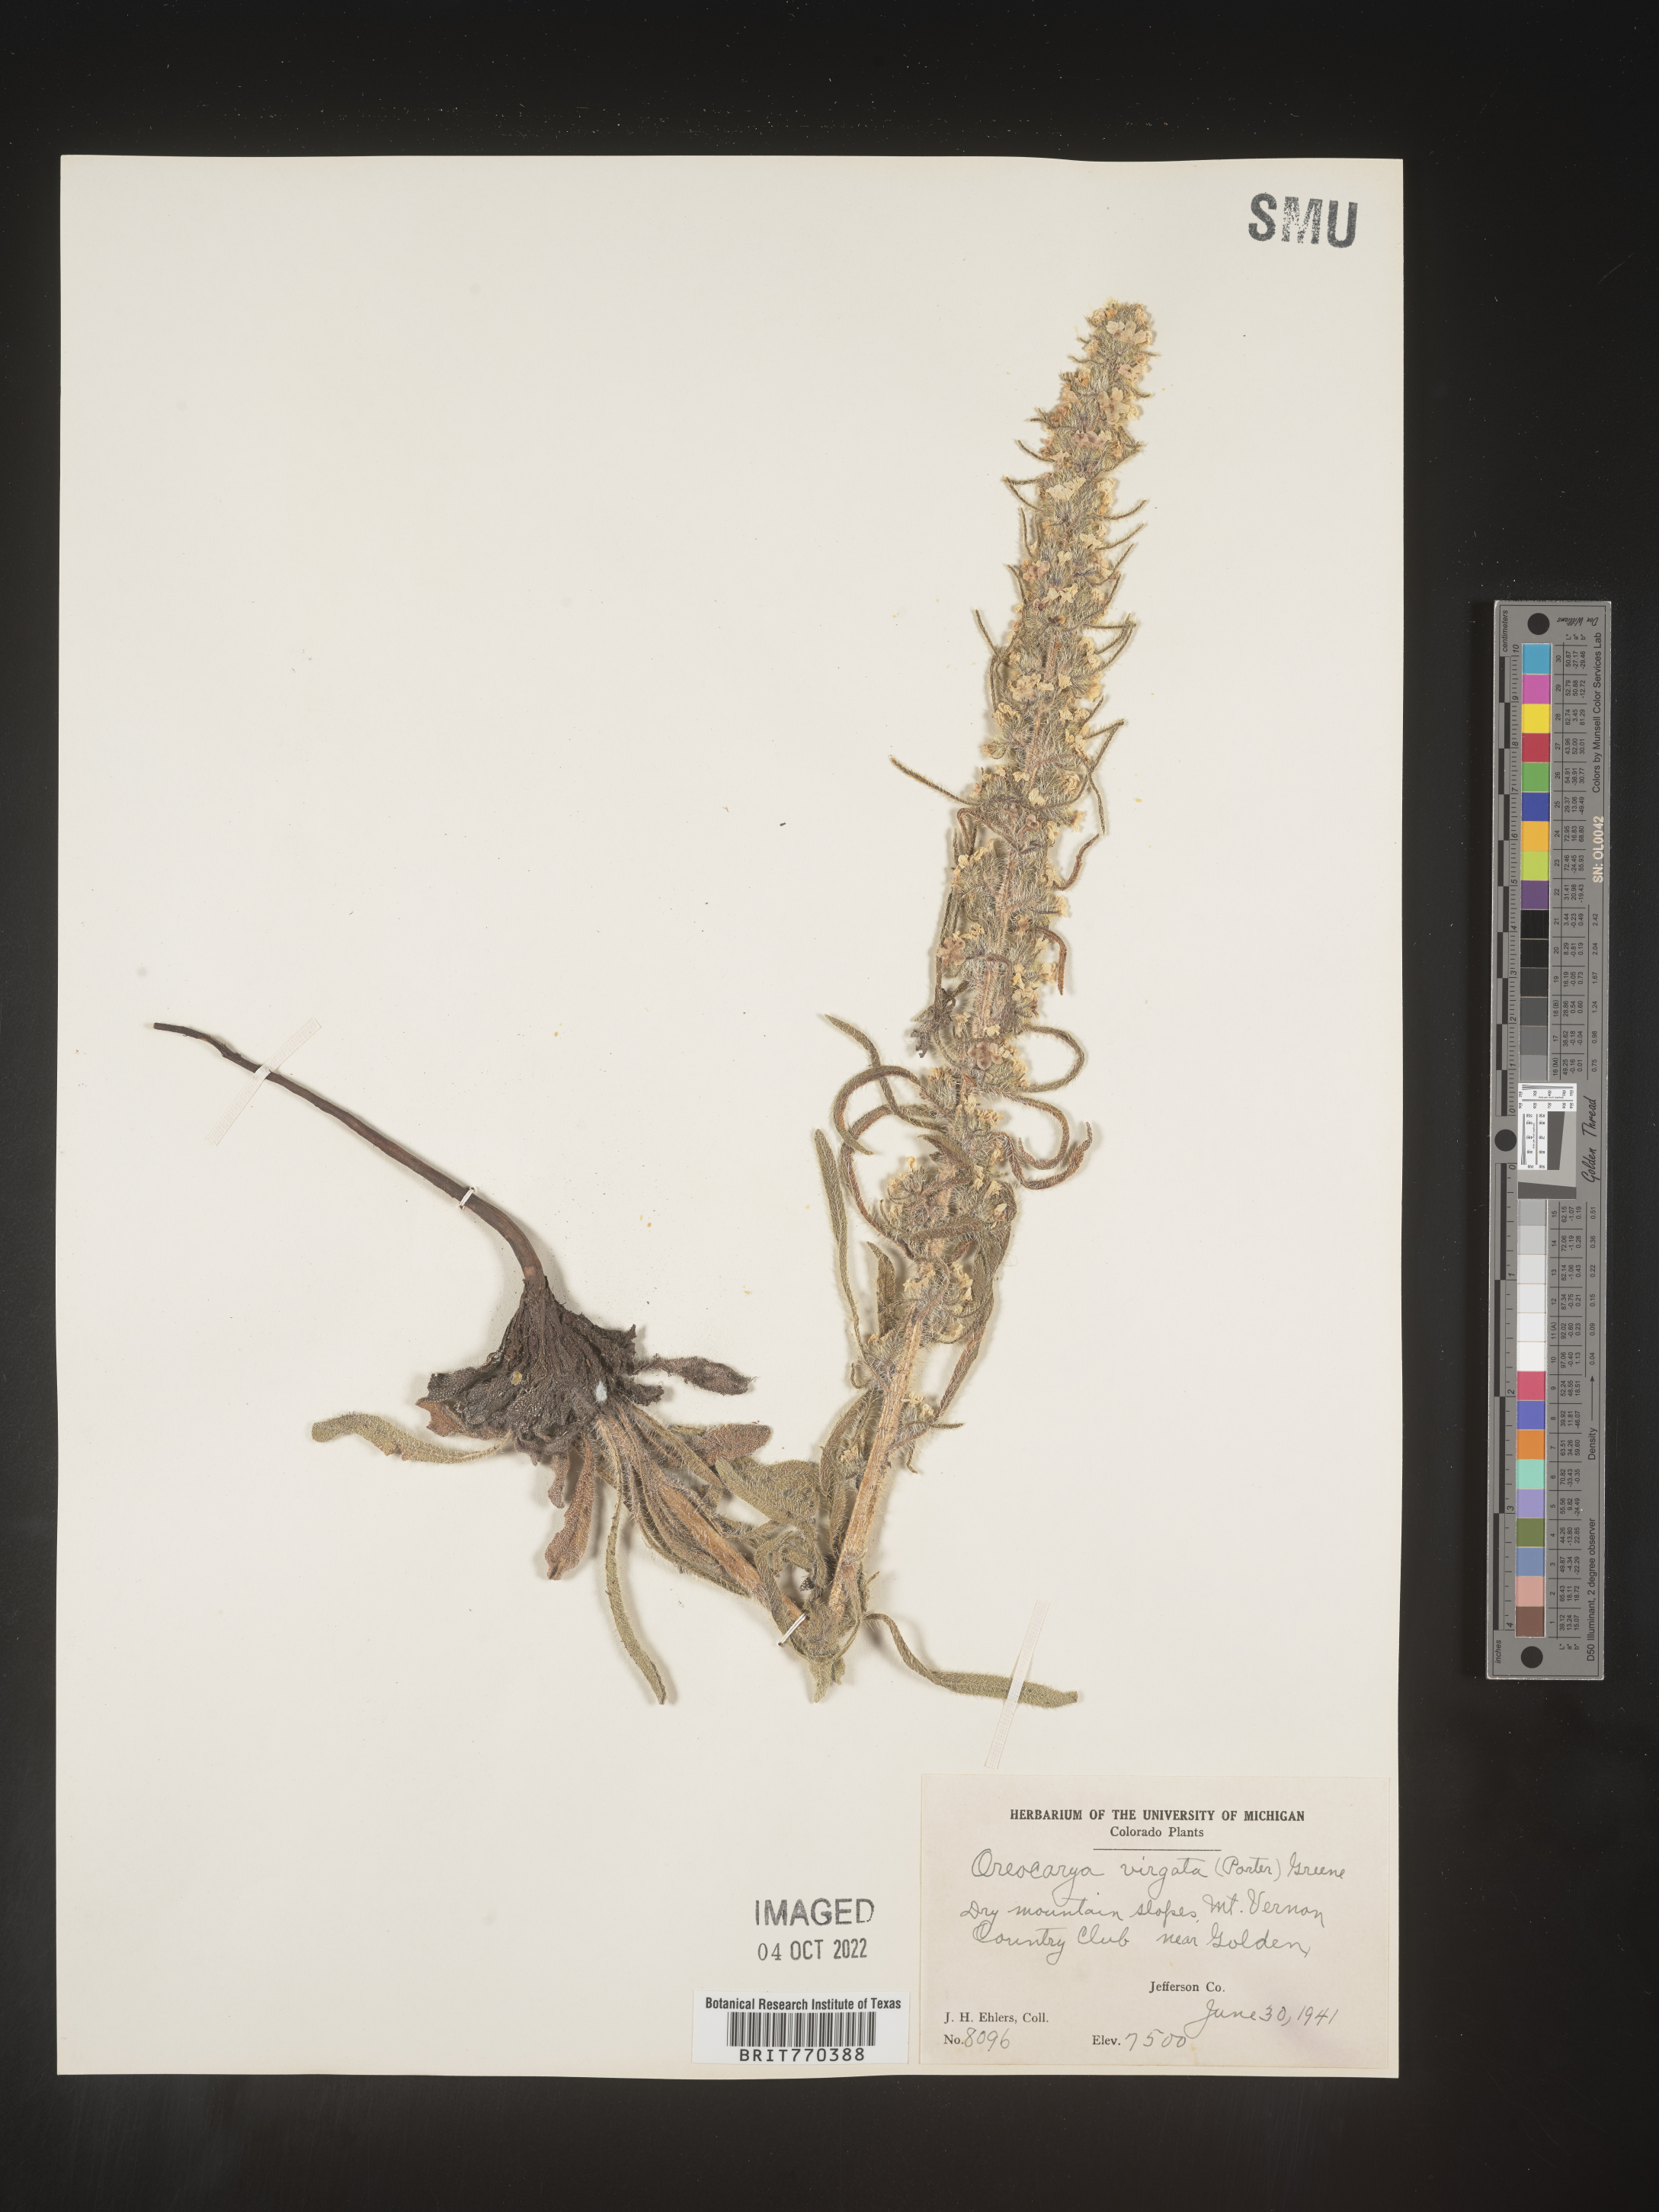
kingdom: Plantae
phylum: Tracheophyta
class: Magnoliopsida
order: Boraginales
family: Boraginaceae
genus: Oreocarya
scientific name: Oreocarya
